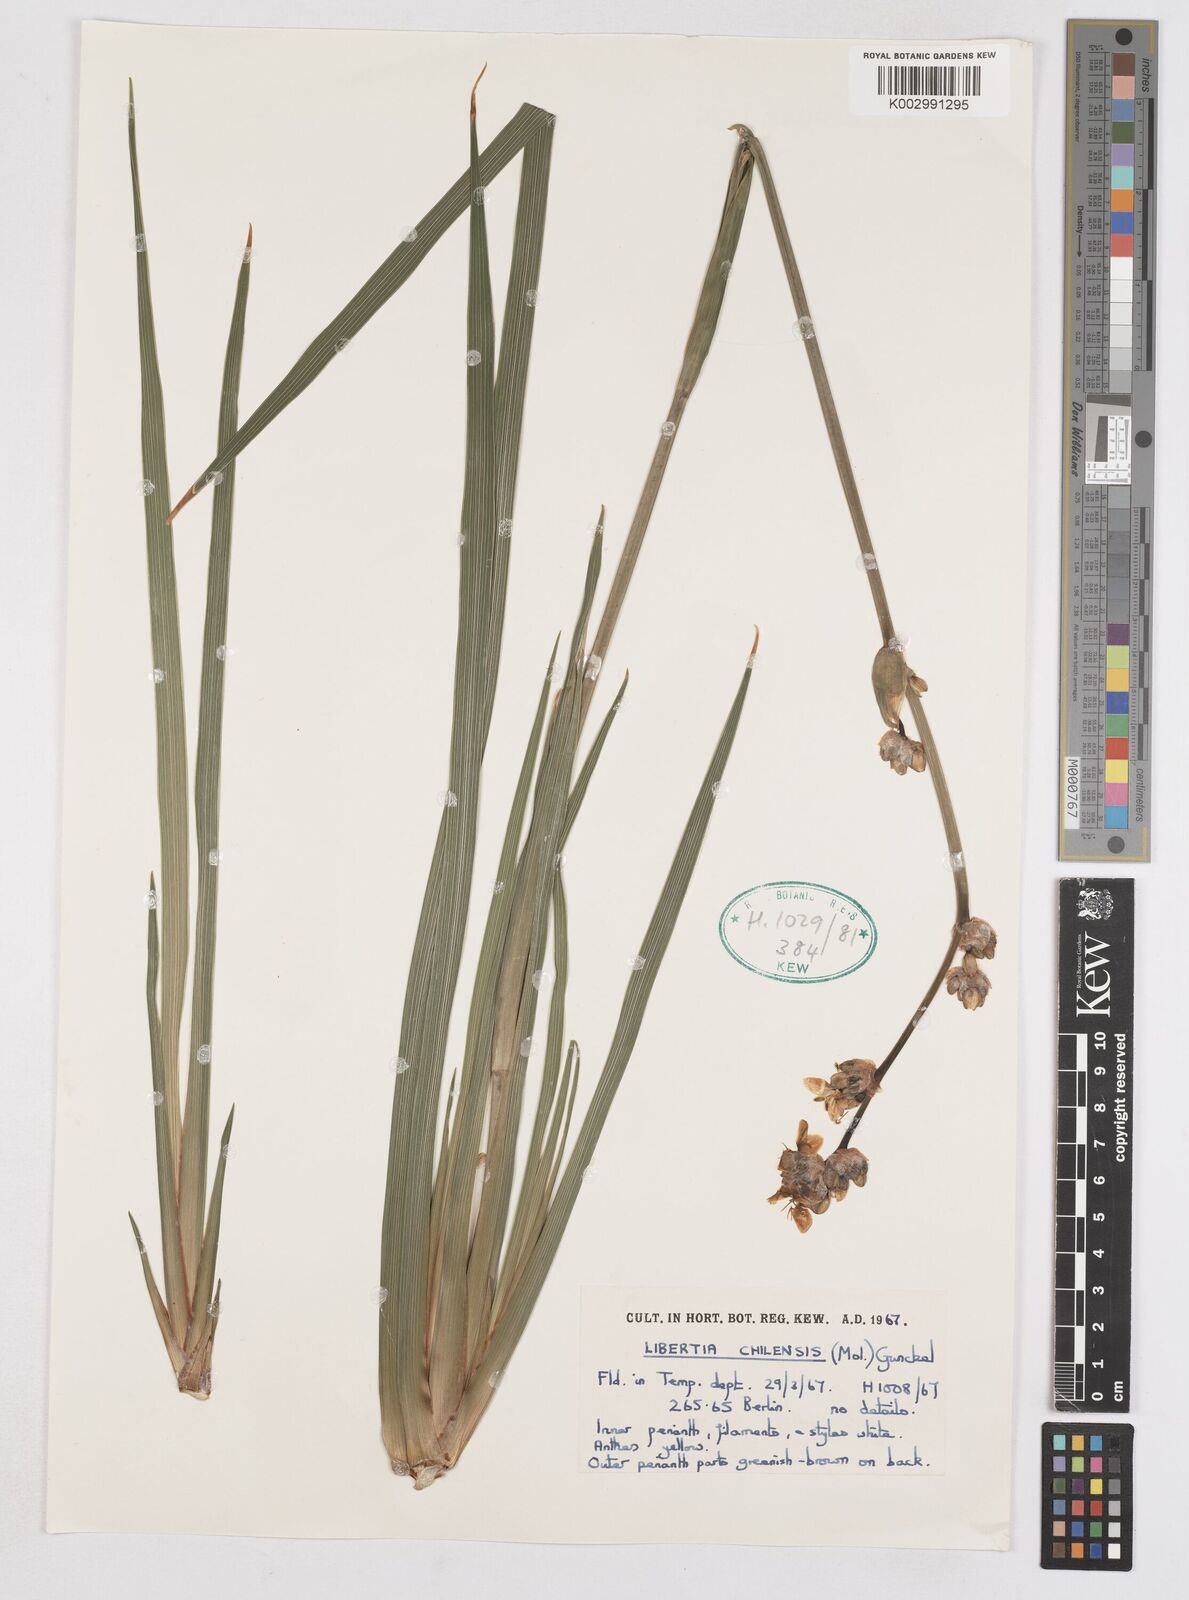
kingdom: Plantae
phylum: Tracheophyta
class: Liliopsida
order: Asparagales
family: Iridaceae
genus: Libertia
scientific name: Libertia chilensis
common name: Satin flower
